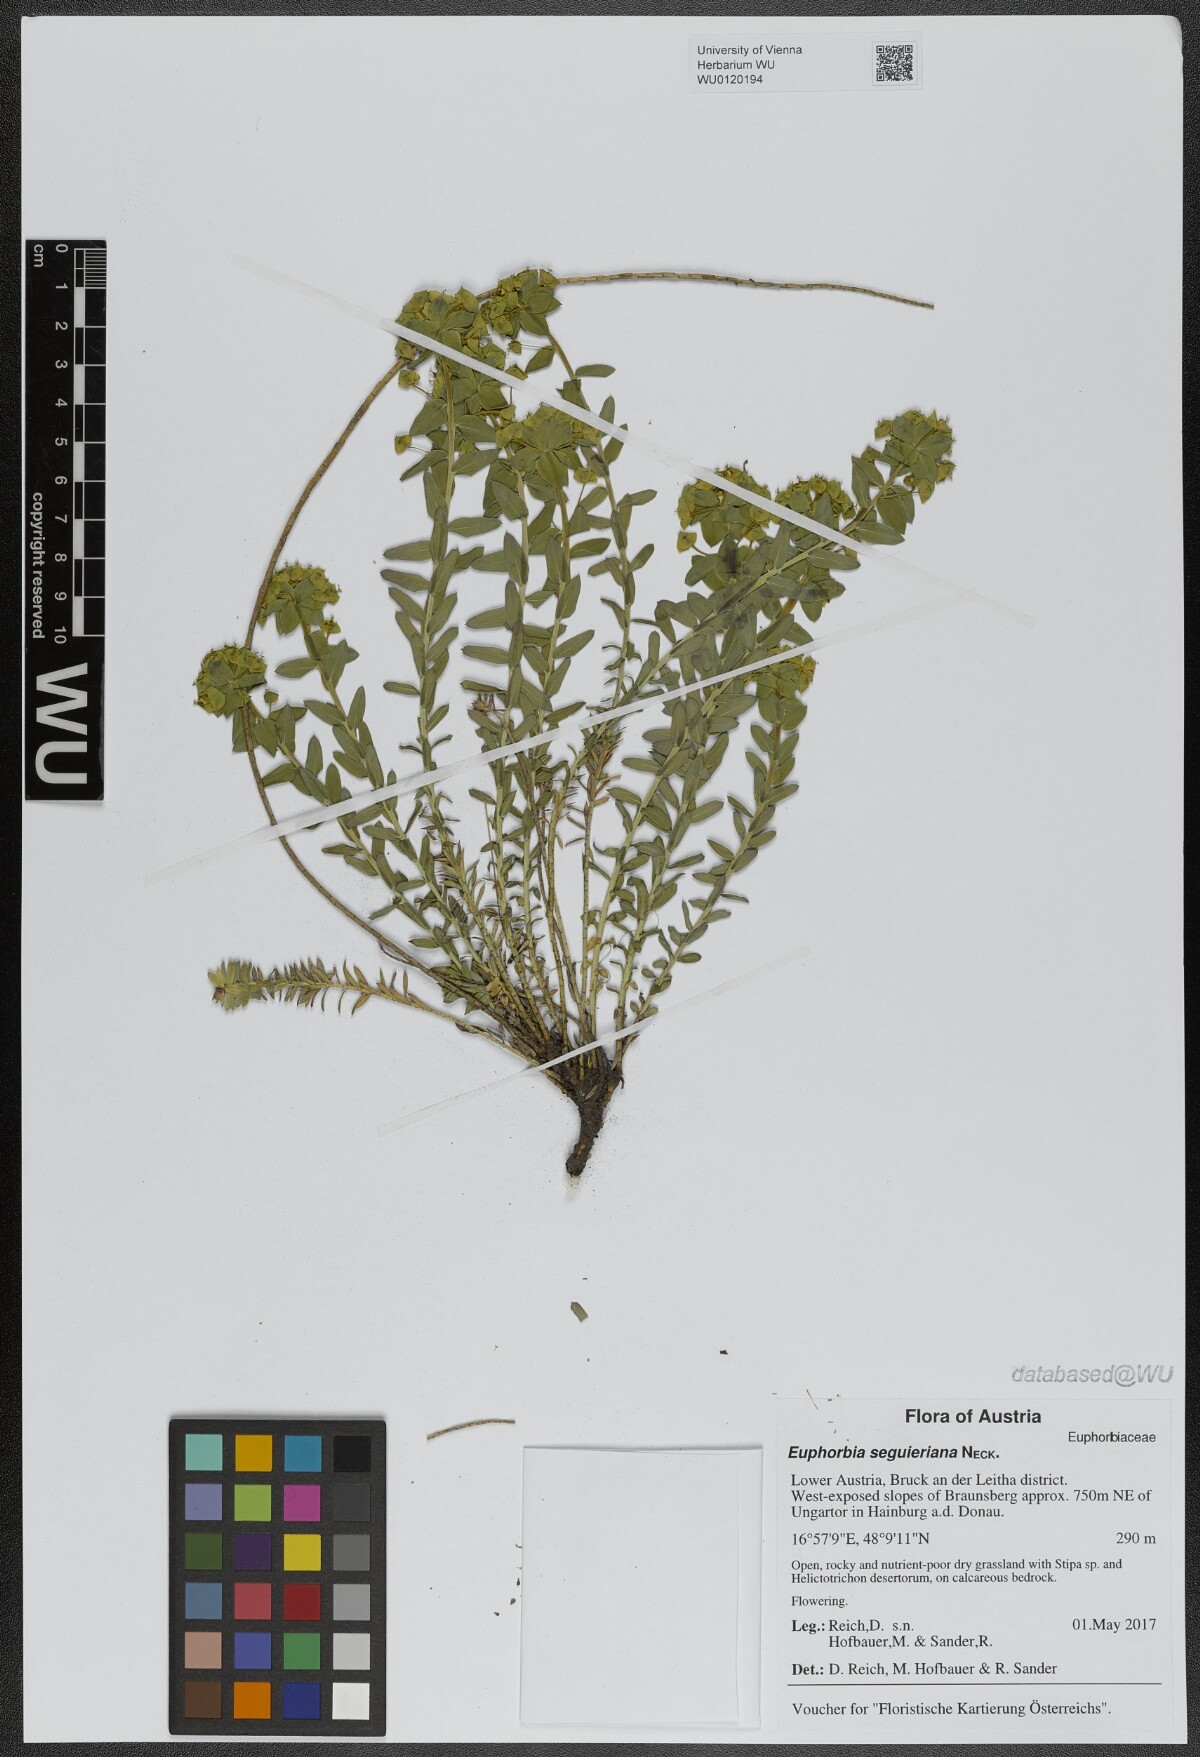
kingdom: Plantae
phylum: Tracheophyta
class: Magnoliopsida
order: Malpighiales
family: Euphorbiaceae
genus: Euphorbia
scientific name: Euphorbia seguieriana
